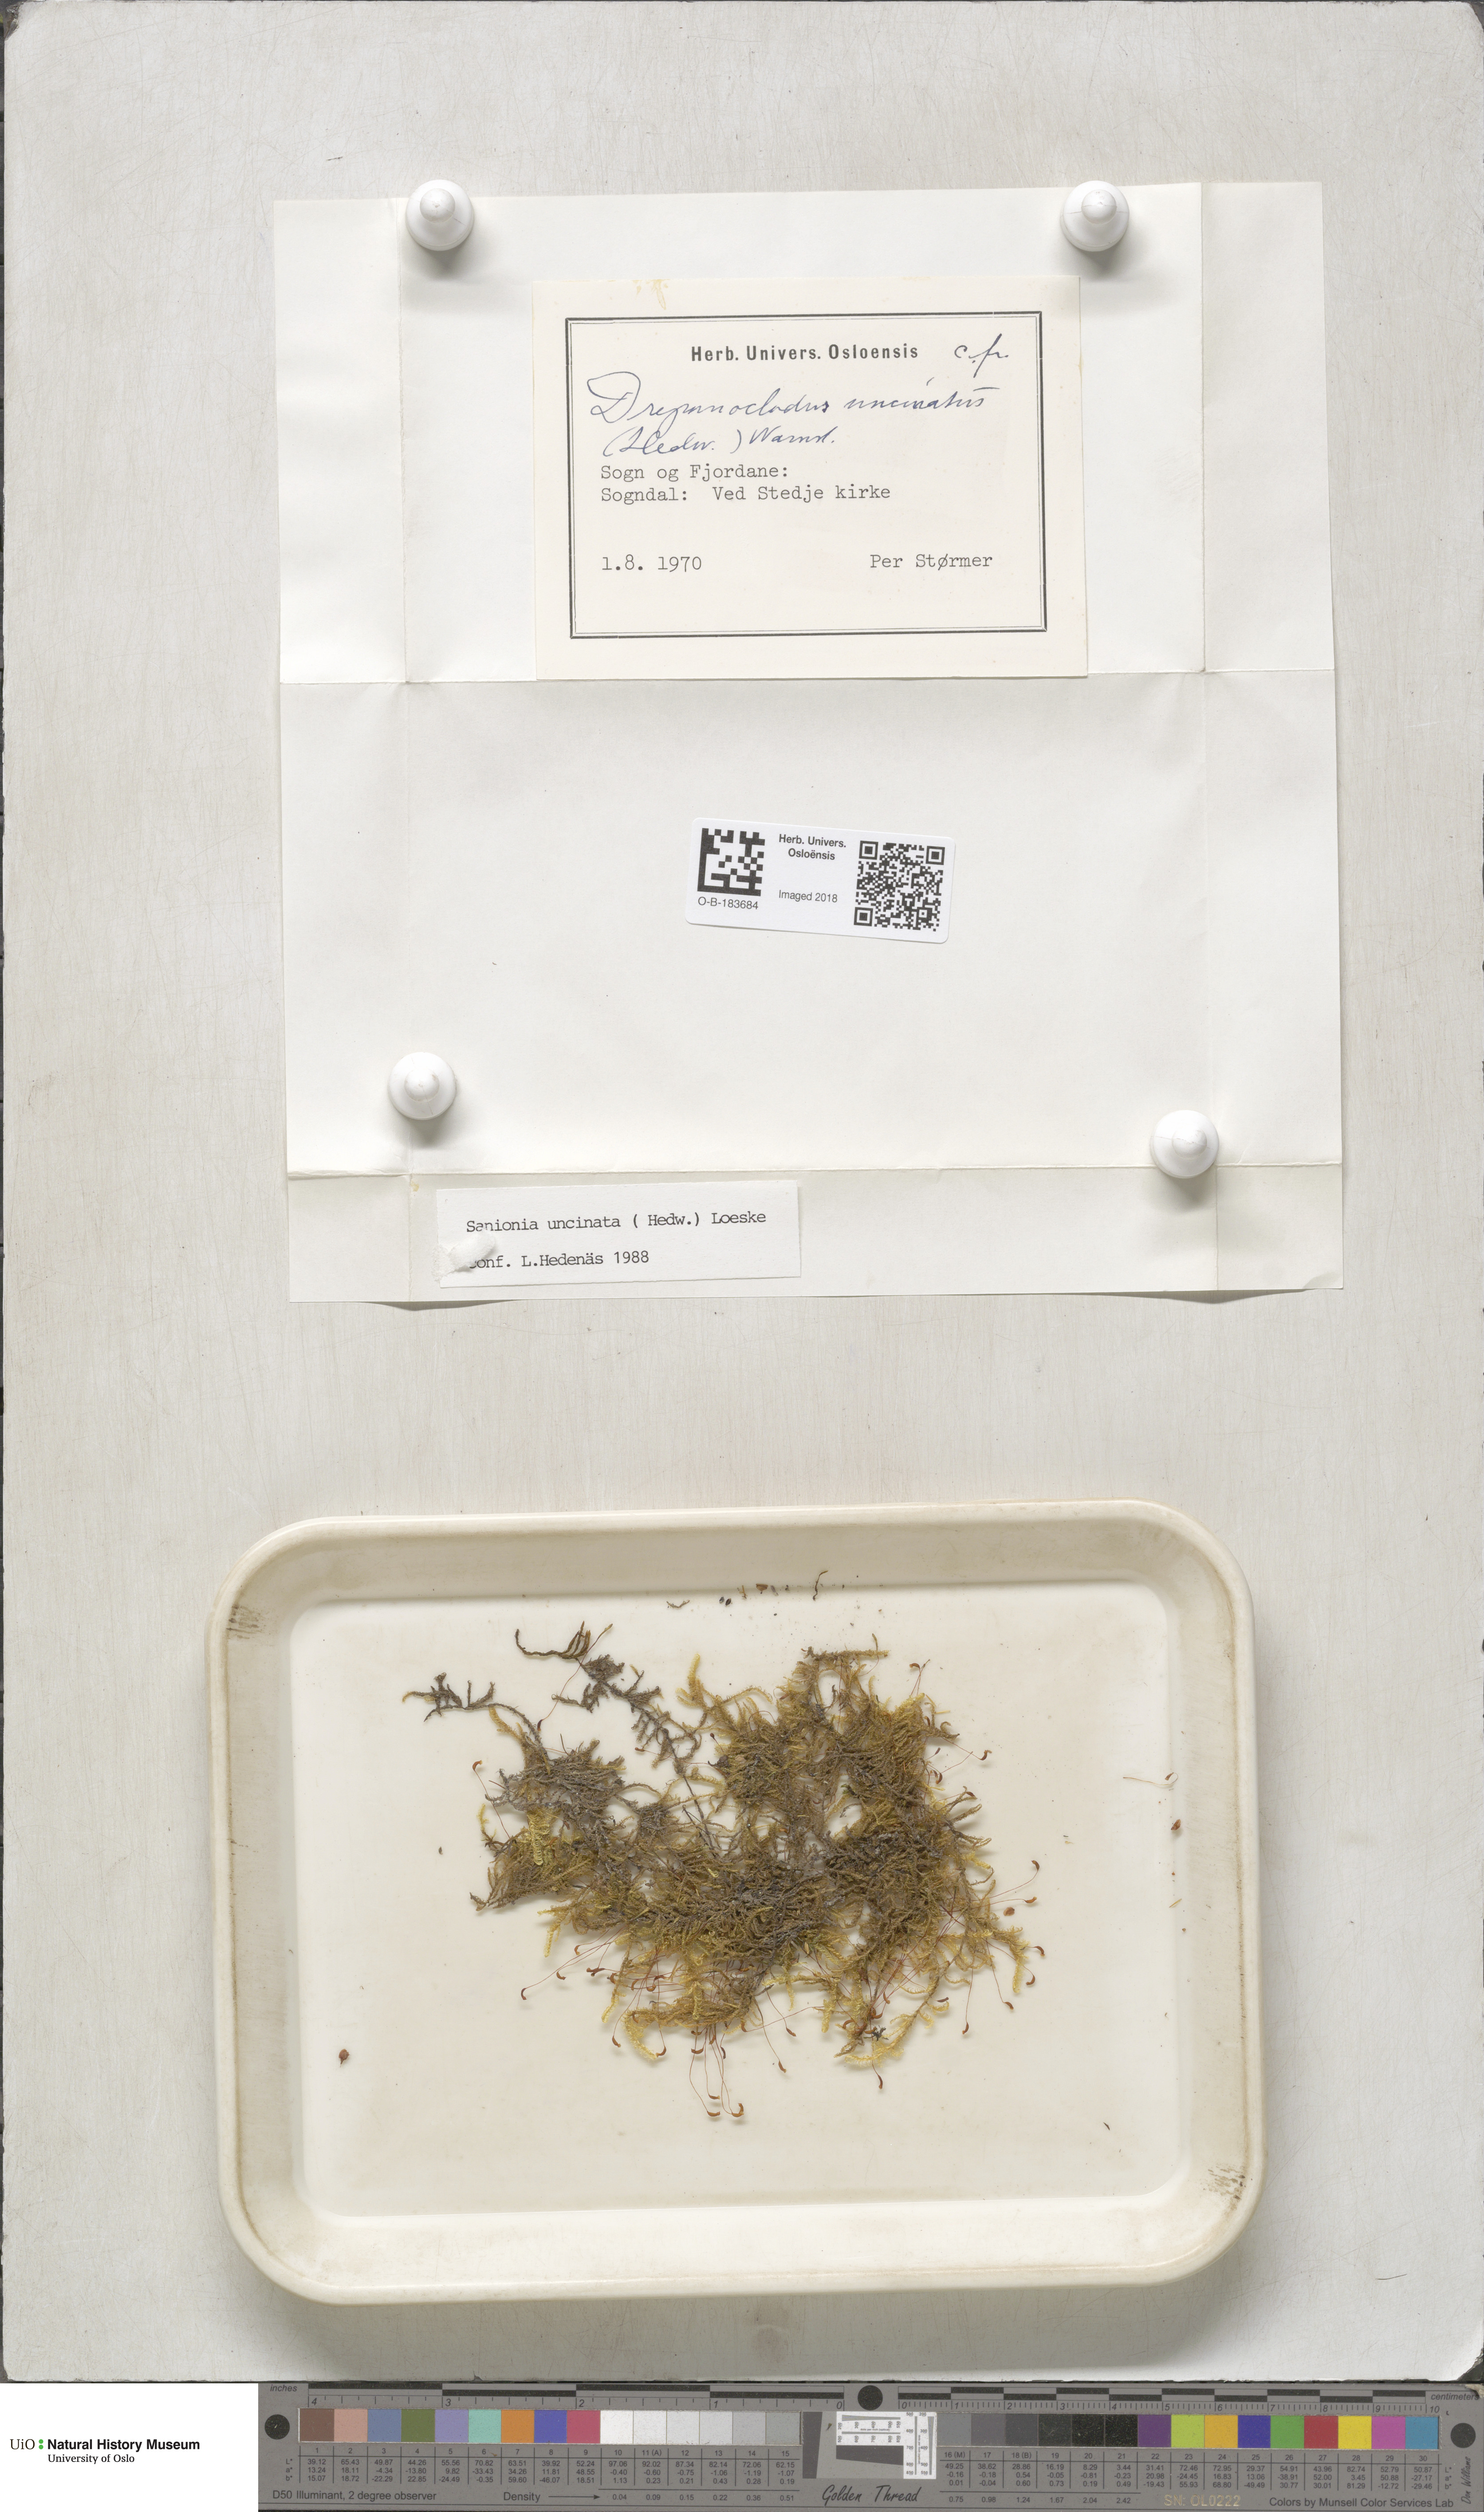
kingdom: Plantae
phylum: Bryophyta
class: Bryopsida
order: Hypnales
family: Scorpidiaceae
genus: Sanionia
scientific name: Sanionia uncinata
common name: Sickle moss
